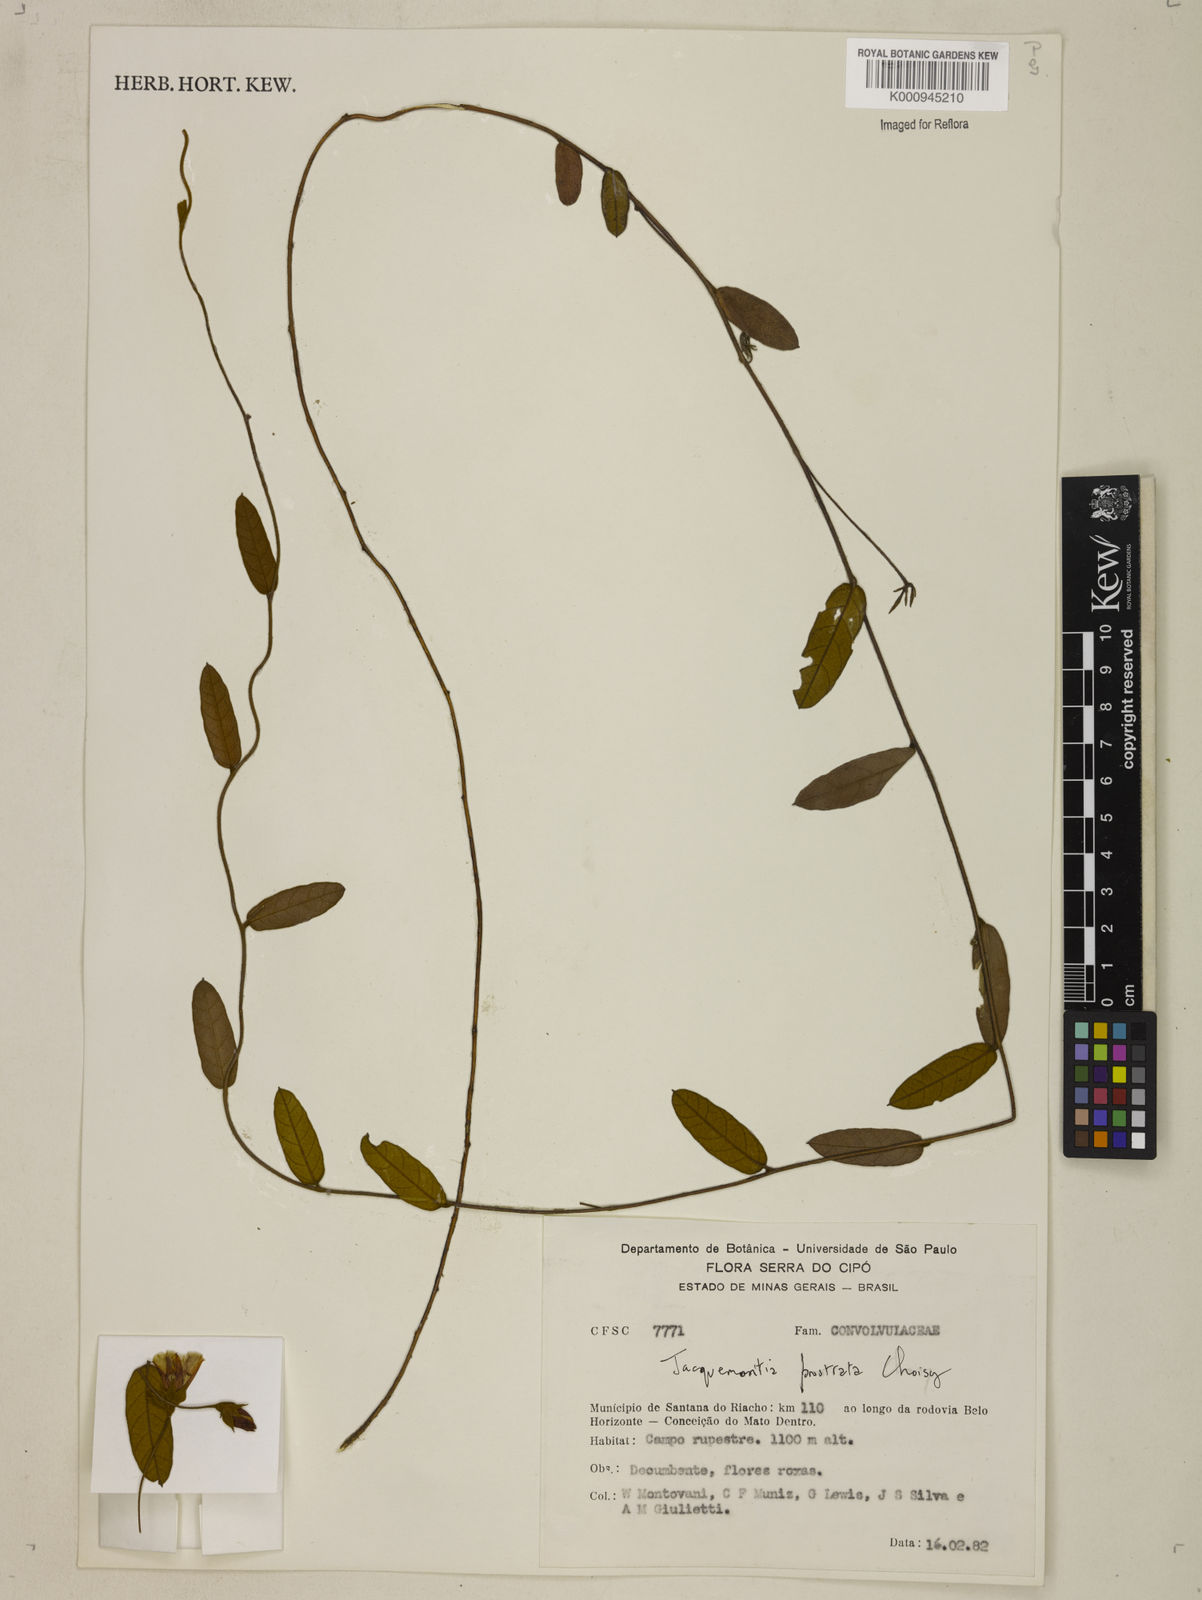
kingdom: Plantae
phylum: Tracheophyta
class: Magnoliopsida
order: Solanales
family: Convolvulaceae
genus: Jacquemontia
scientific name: Jacquemontia prostrata
